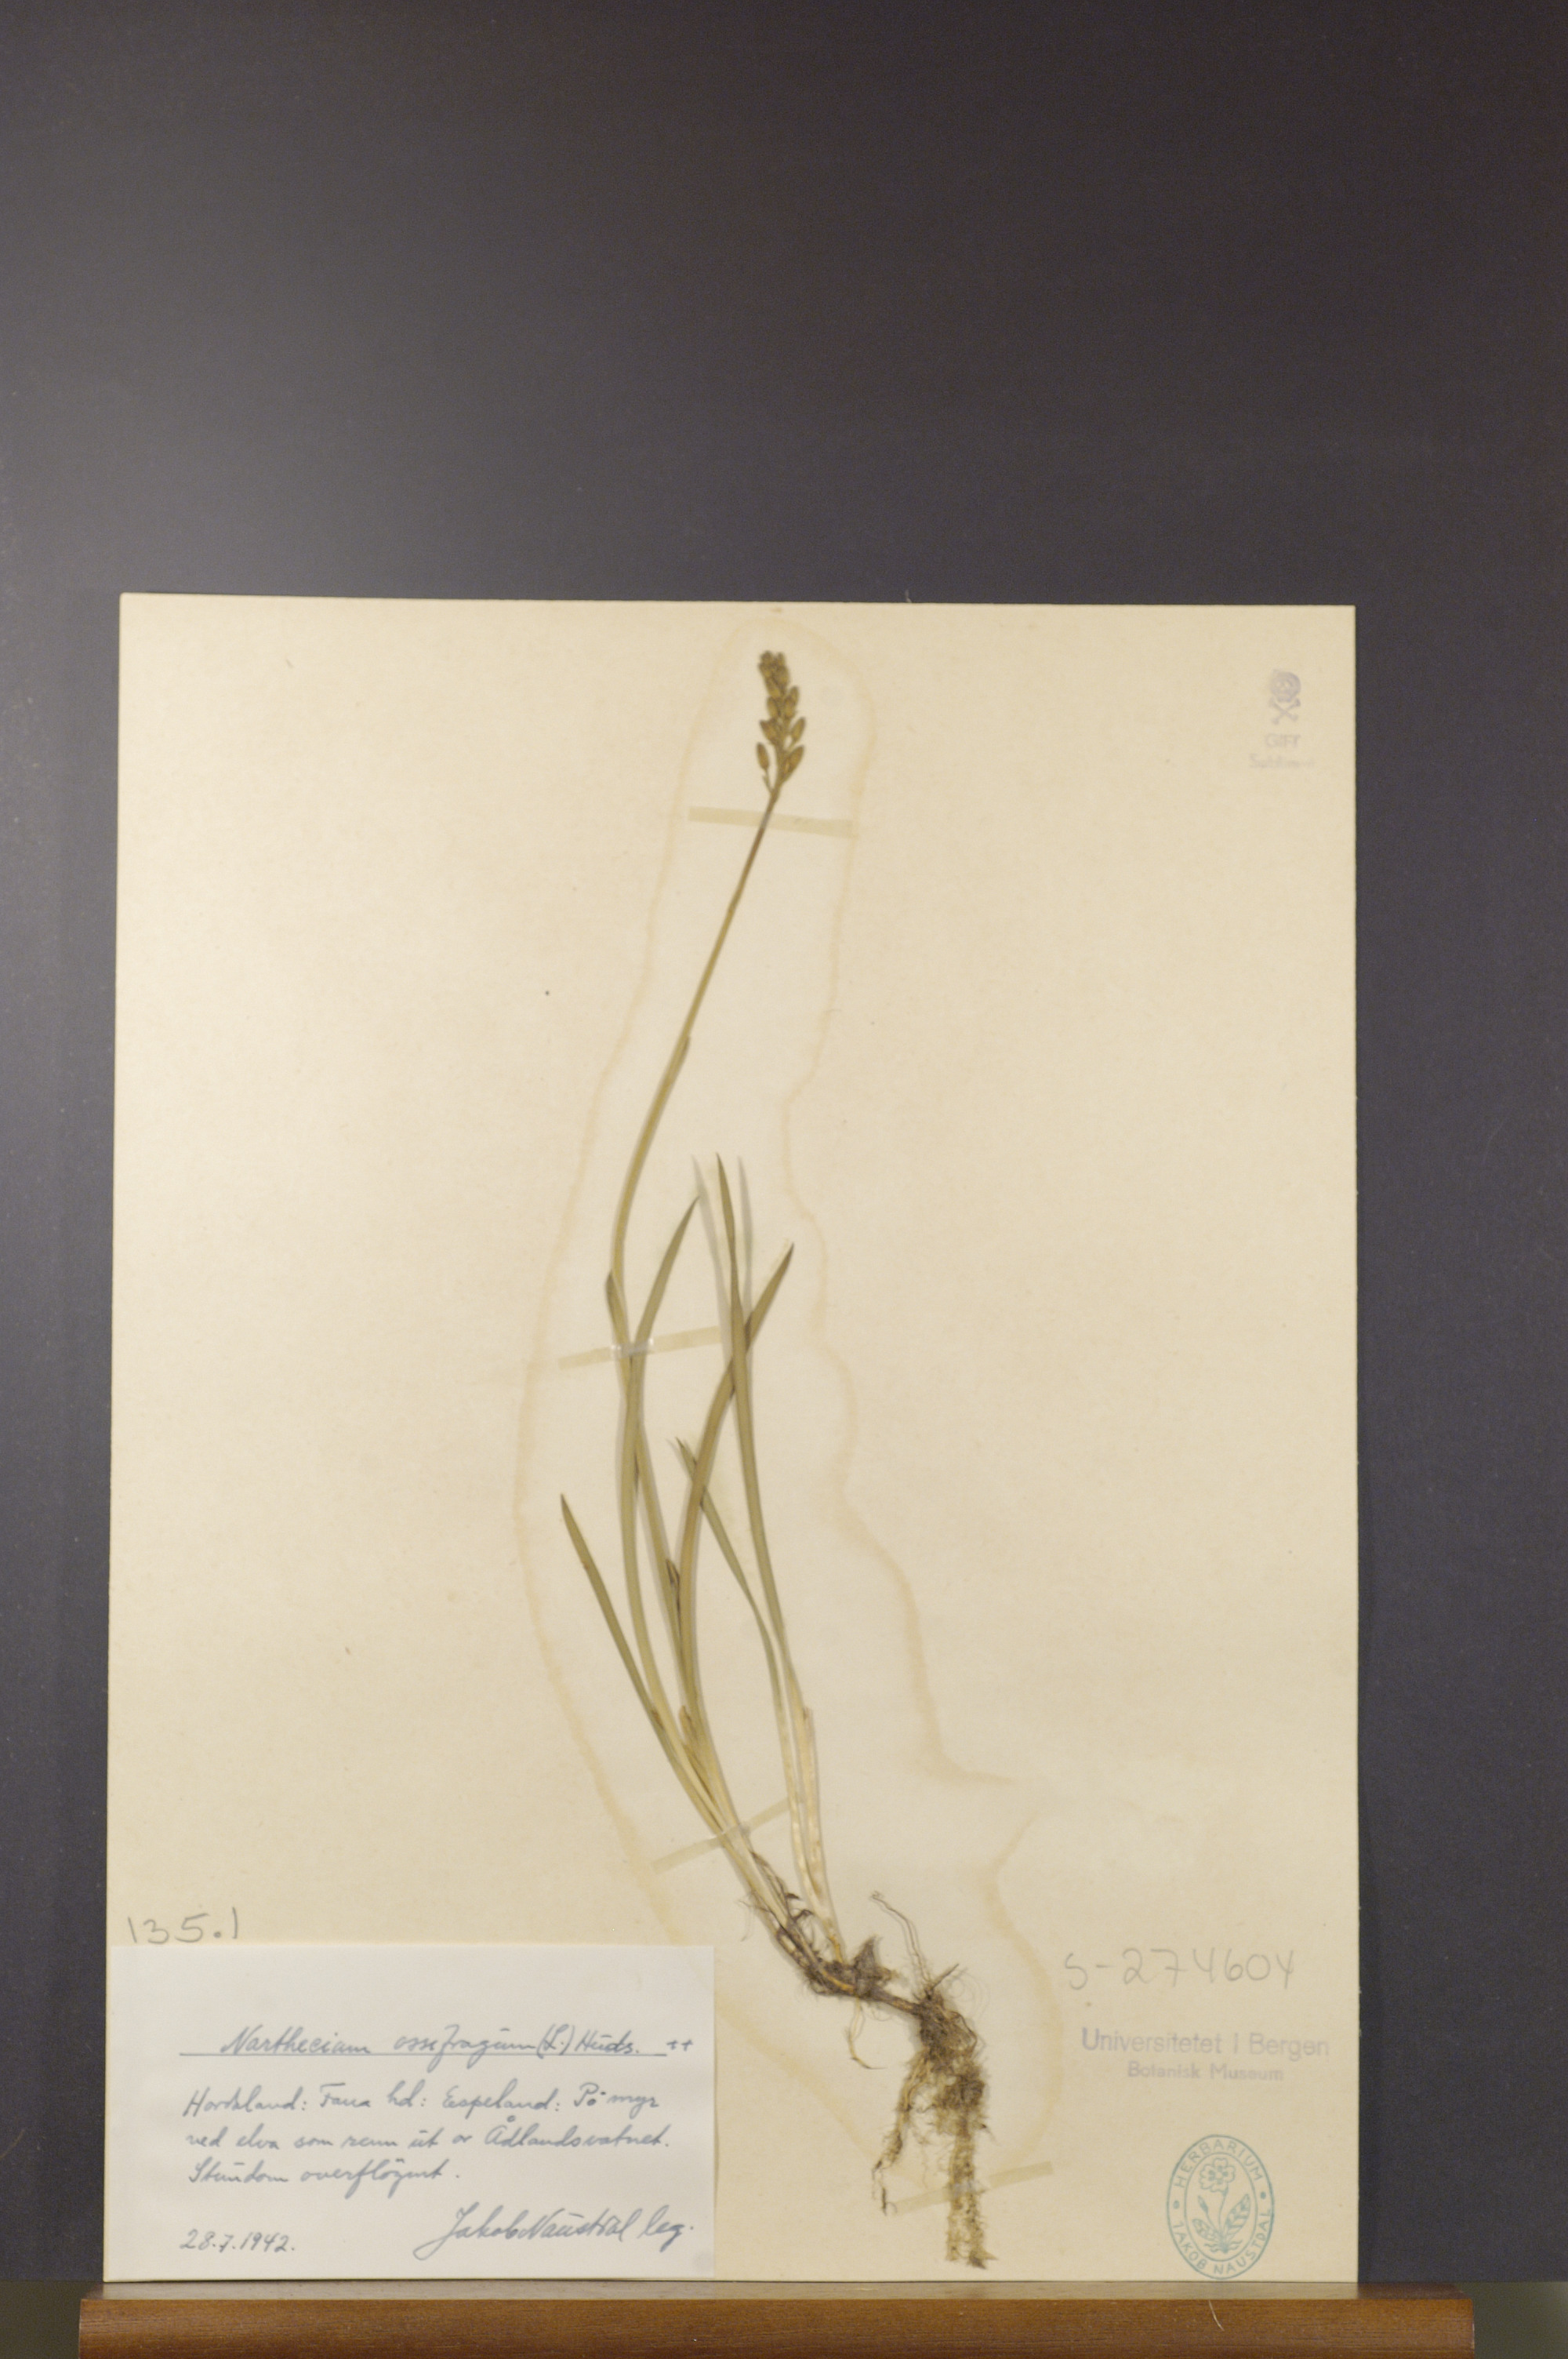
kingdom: Plantae
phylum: Tracheophyta
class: Liliopsida
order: Dioscoreales
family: Nartheciaceae
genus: Narthecium
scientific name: Narthecium ossifragum
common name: Bog asphodel
